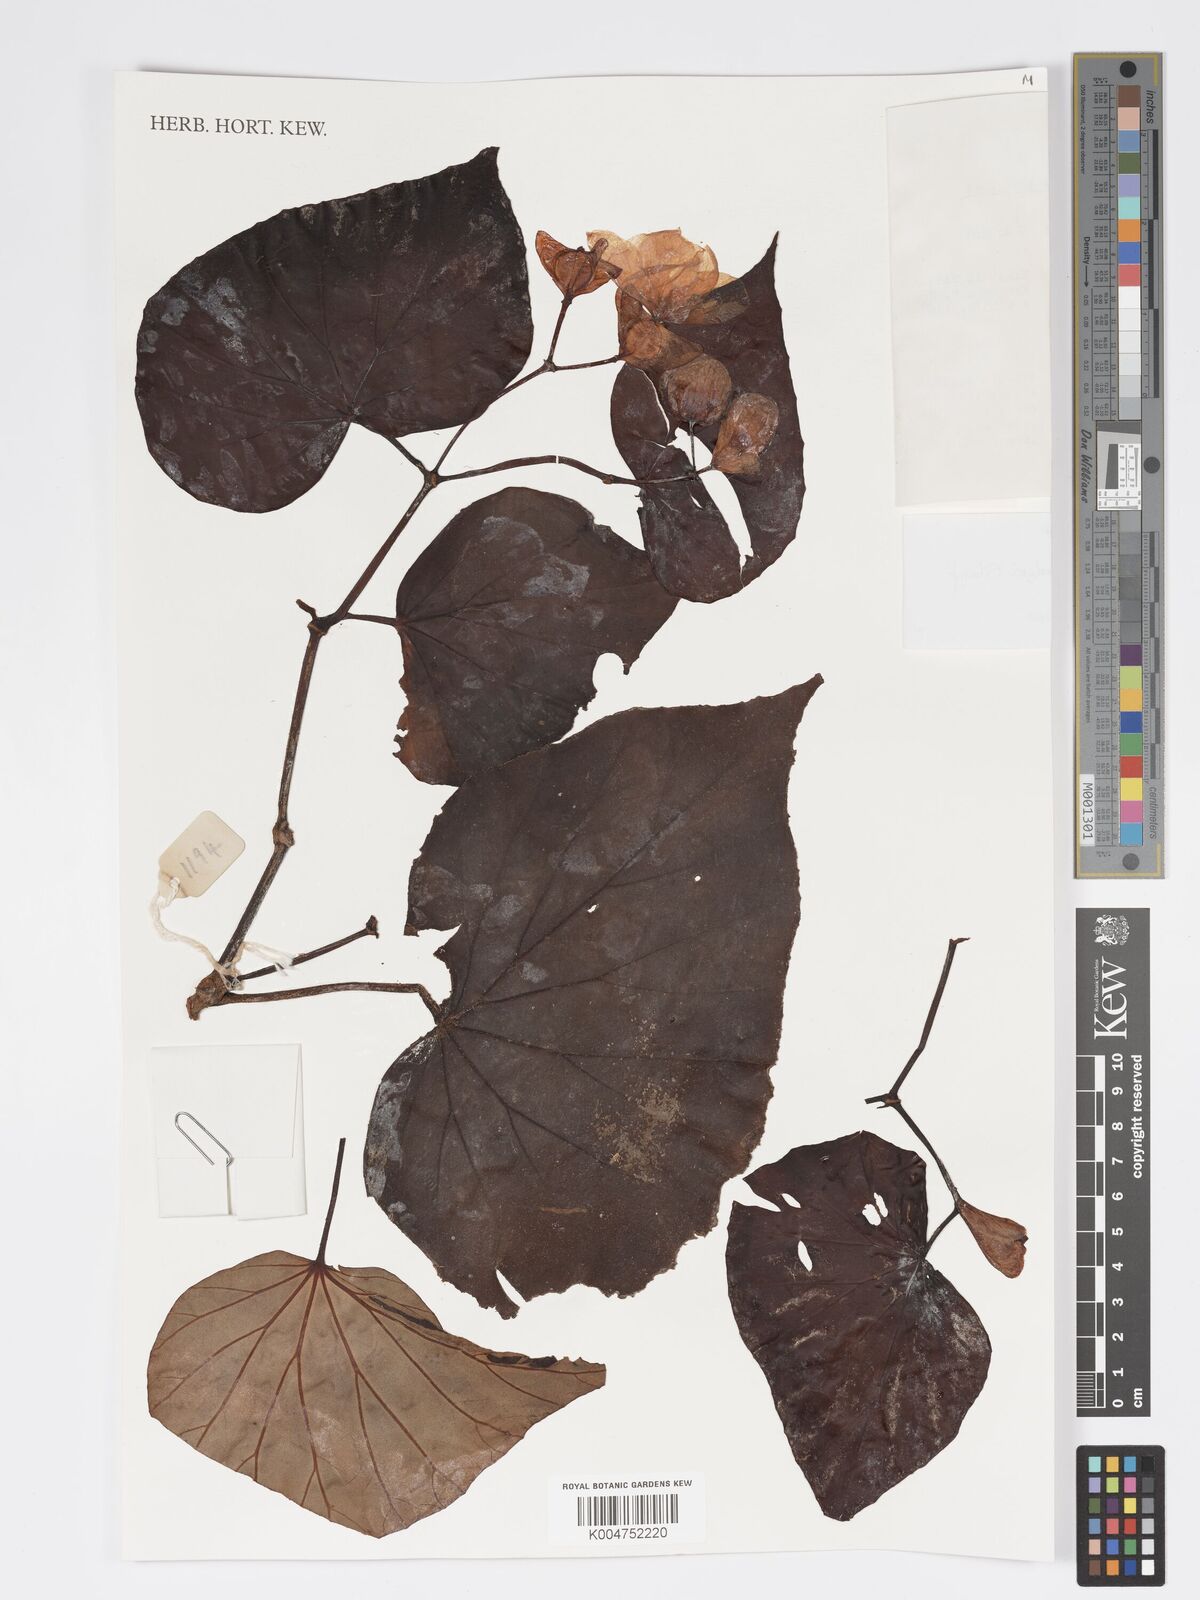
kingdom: Plantae
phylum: Tracheophyta
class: Magnoliopsida
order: Cucurbitales
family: Begoniaceae
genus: Begonia
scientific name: Begonia burbidgei
